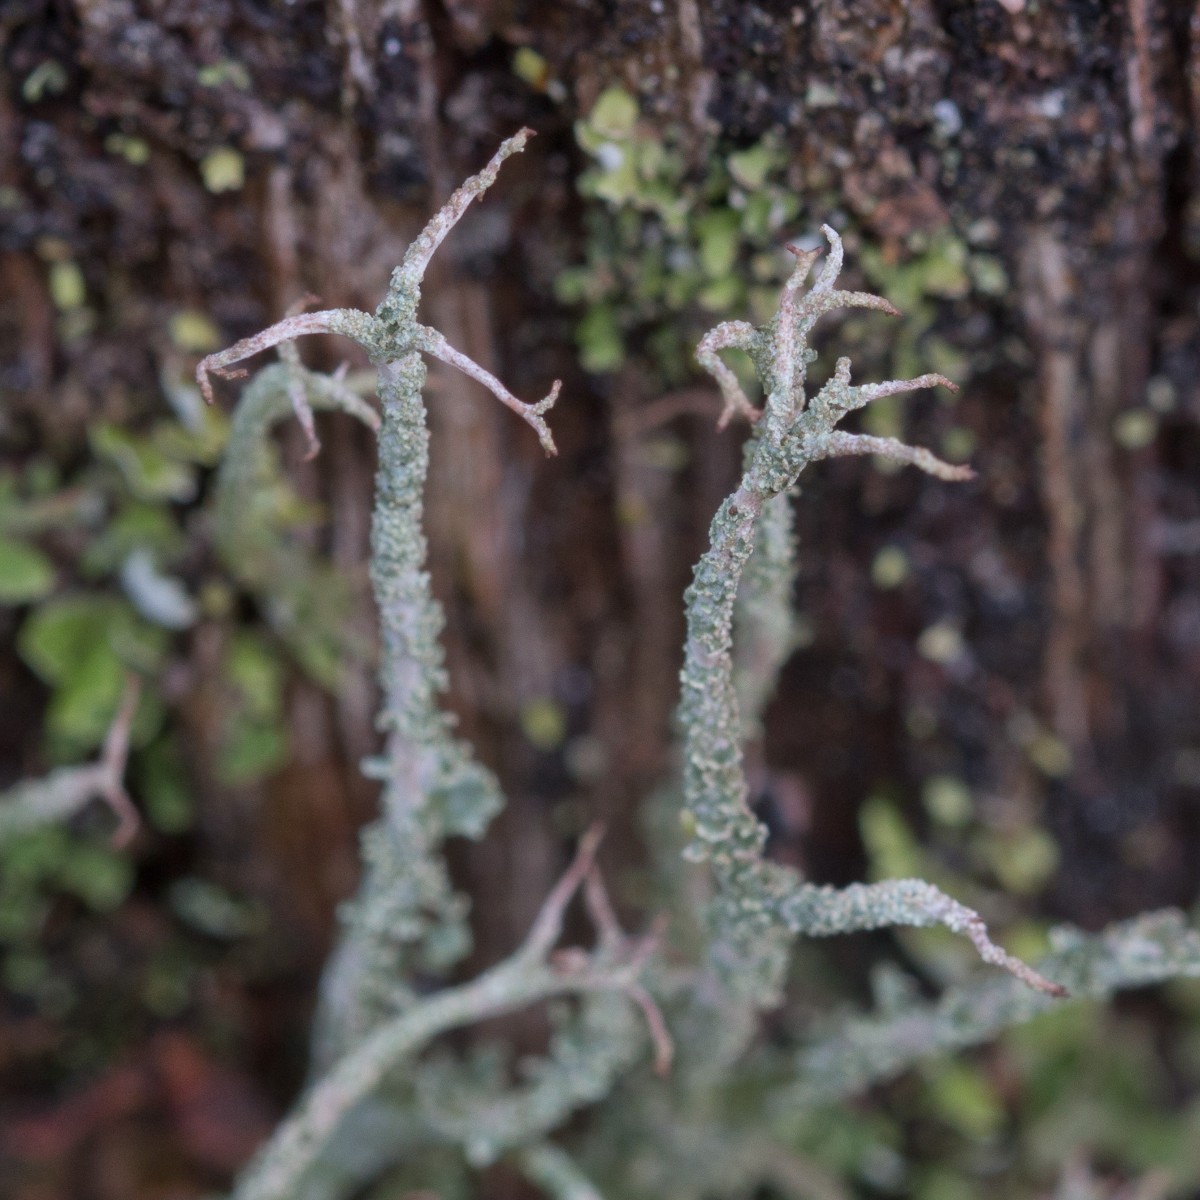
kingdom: Fungi
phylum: Ascomycota
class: Lecanoromycetes
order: Lecanorales
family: Cladoniaceae
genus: Cladonia
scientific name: Cladonia scabriuscula
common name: ru bægerlav
